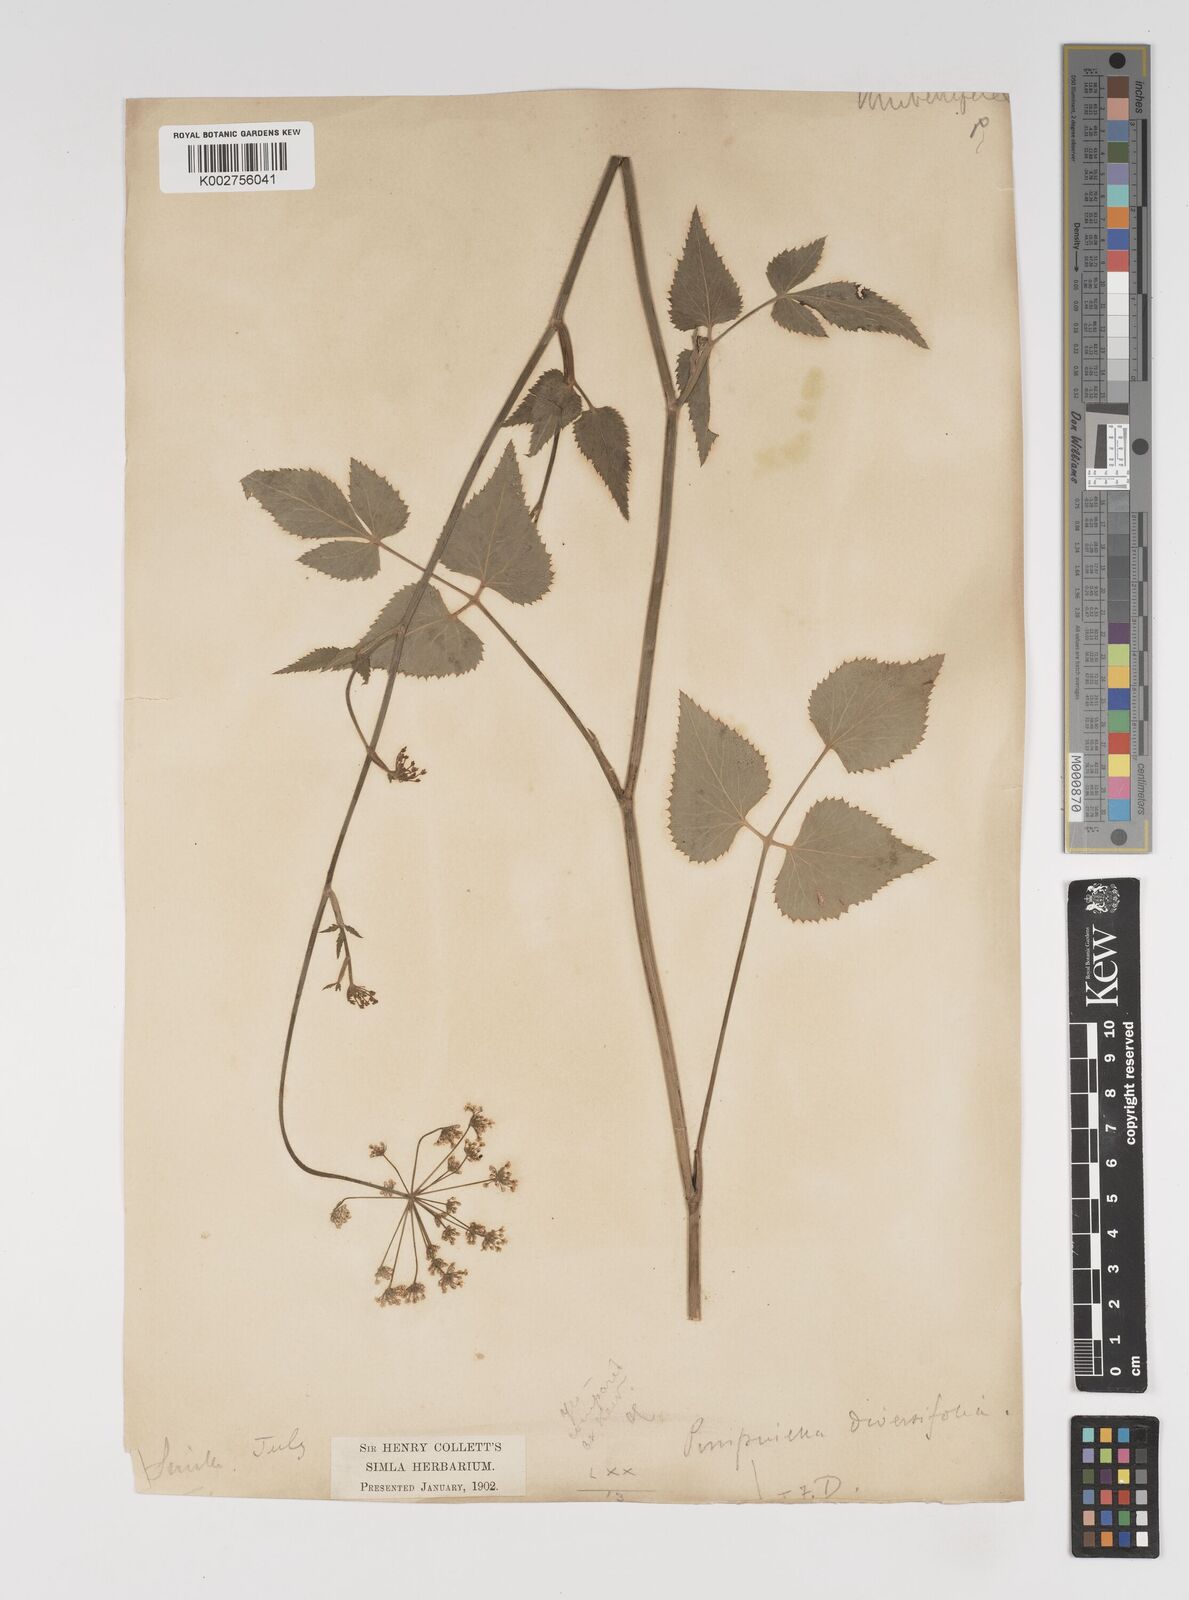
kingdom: Plantae
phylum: Tracheophyta
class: Magnoliopsida
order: Apiales
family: Apiaceae
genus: Pimpinella
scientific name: Pimpinella diversifolia
